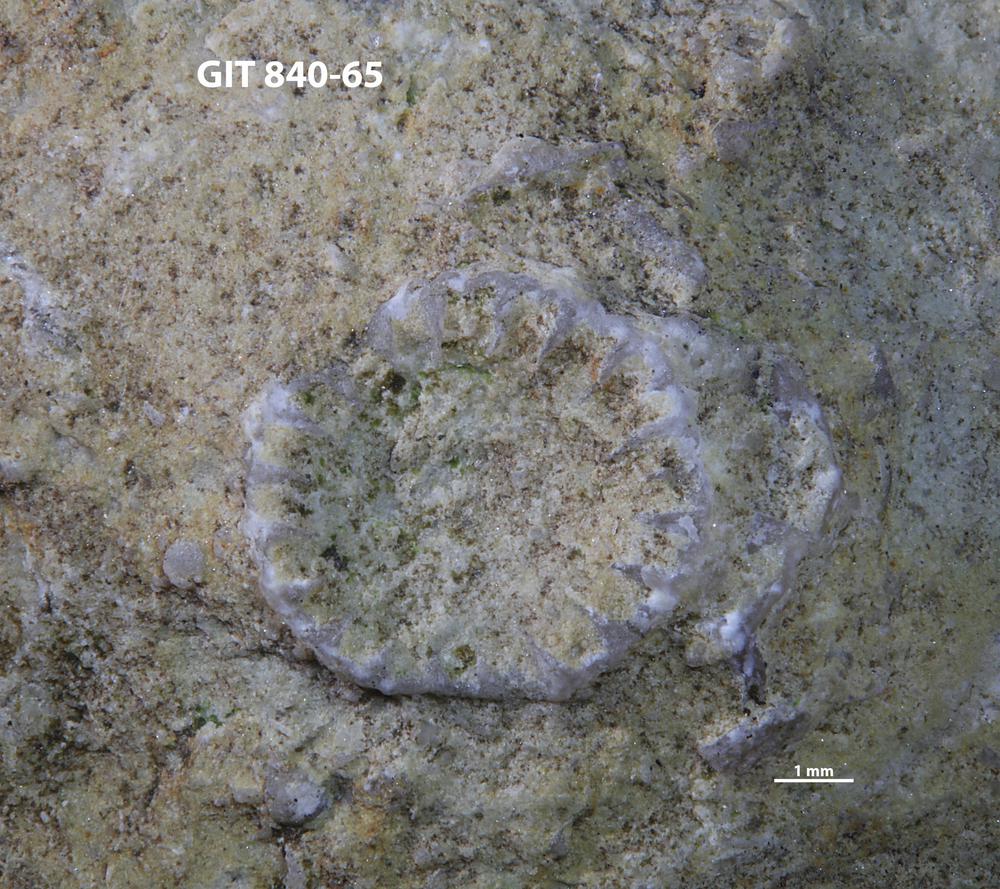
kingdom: Animalia
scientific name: Animalia
